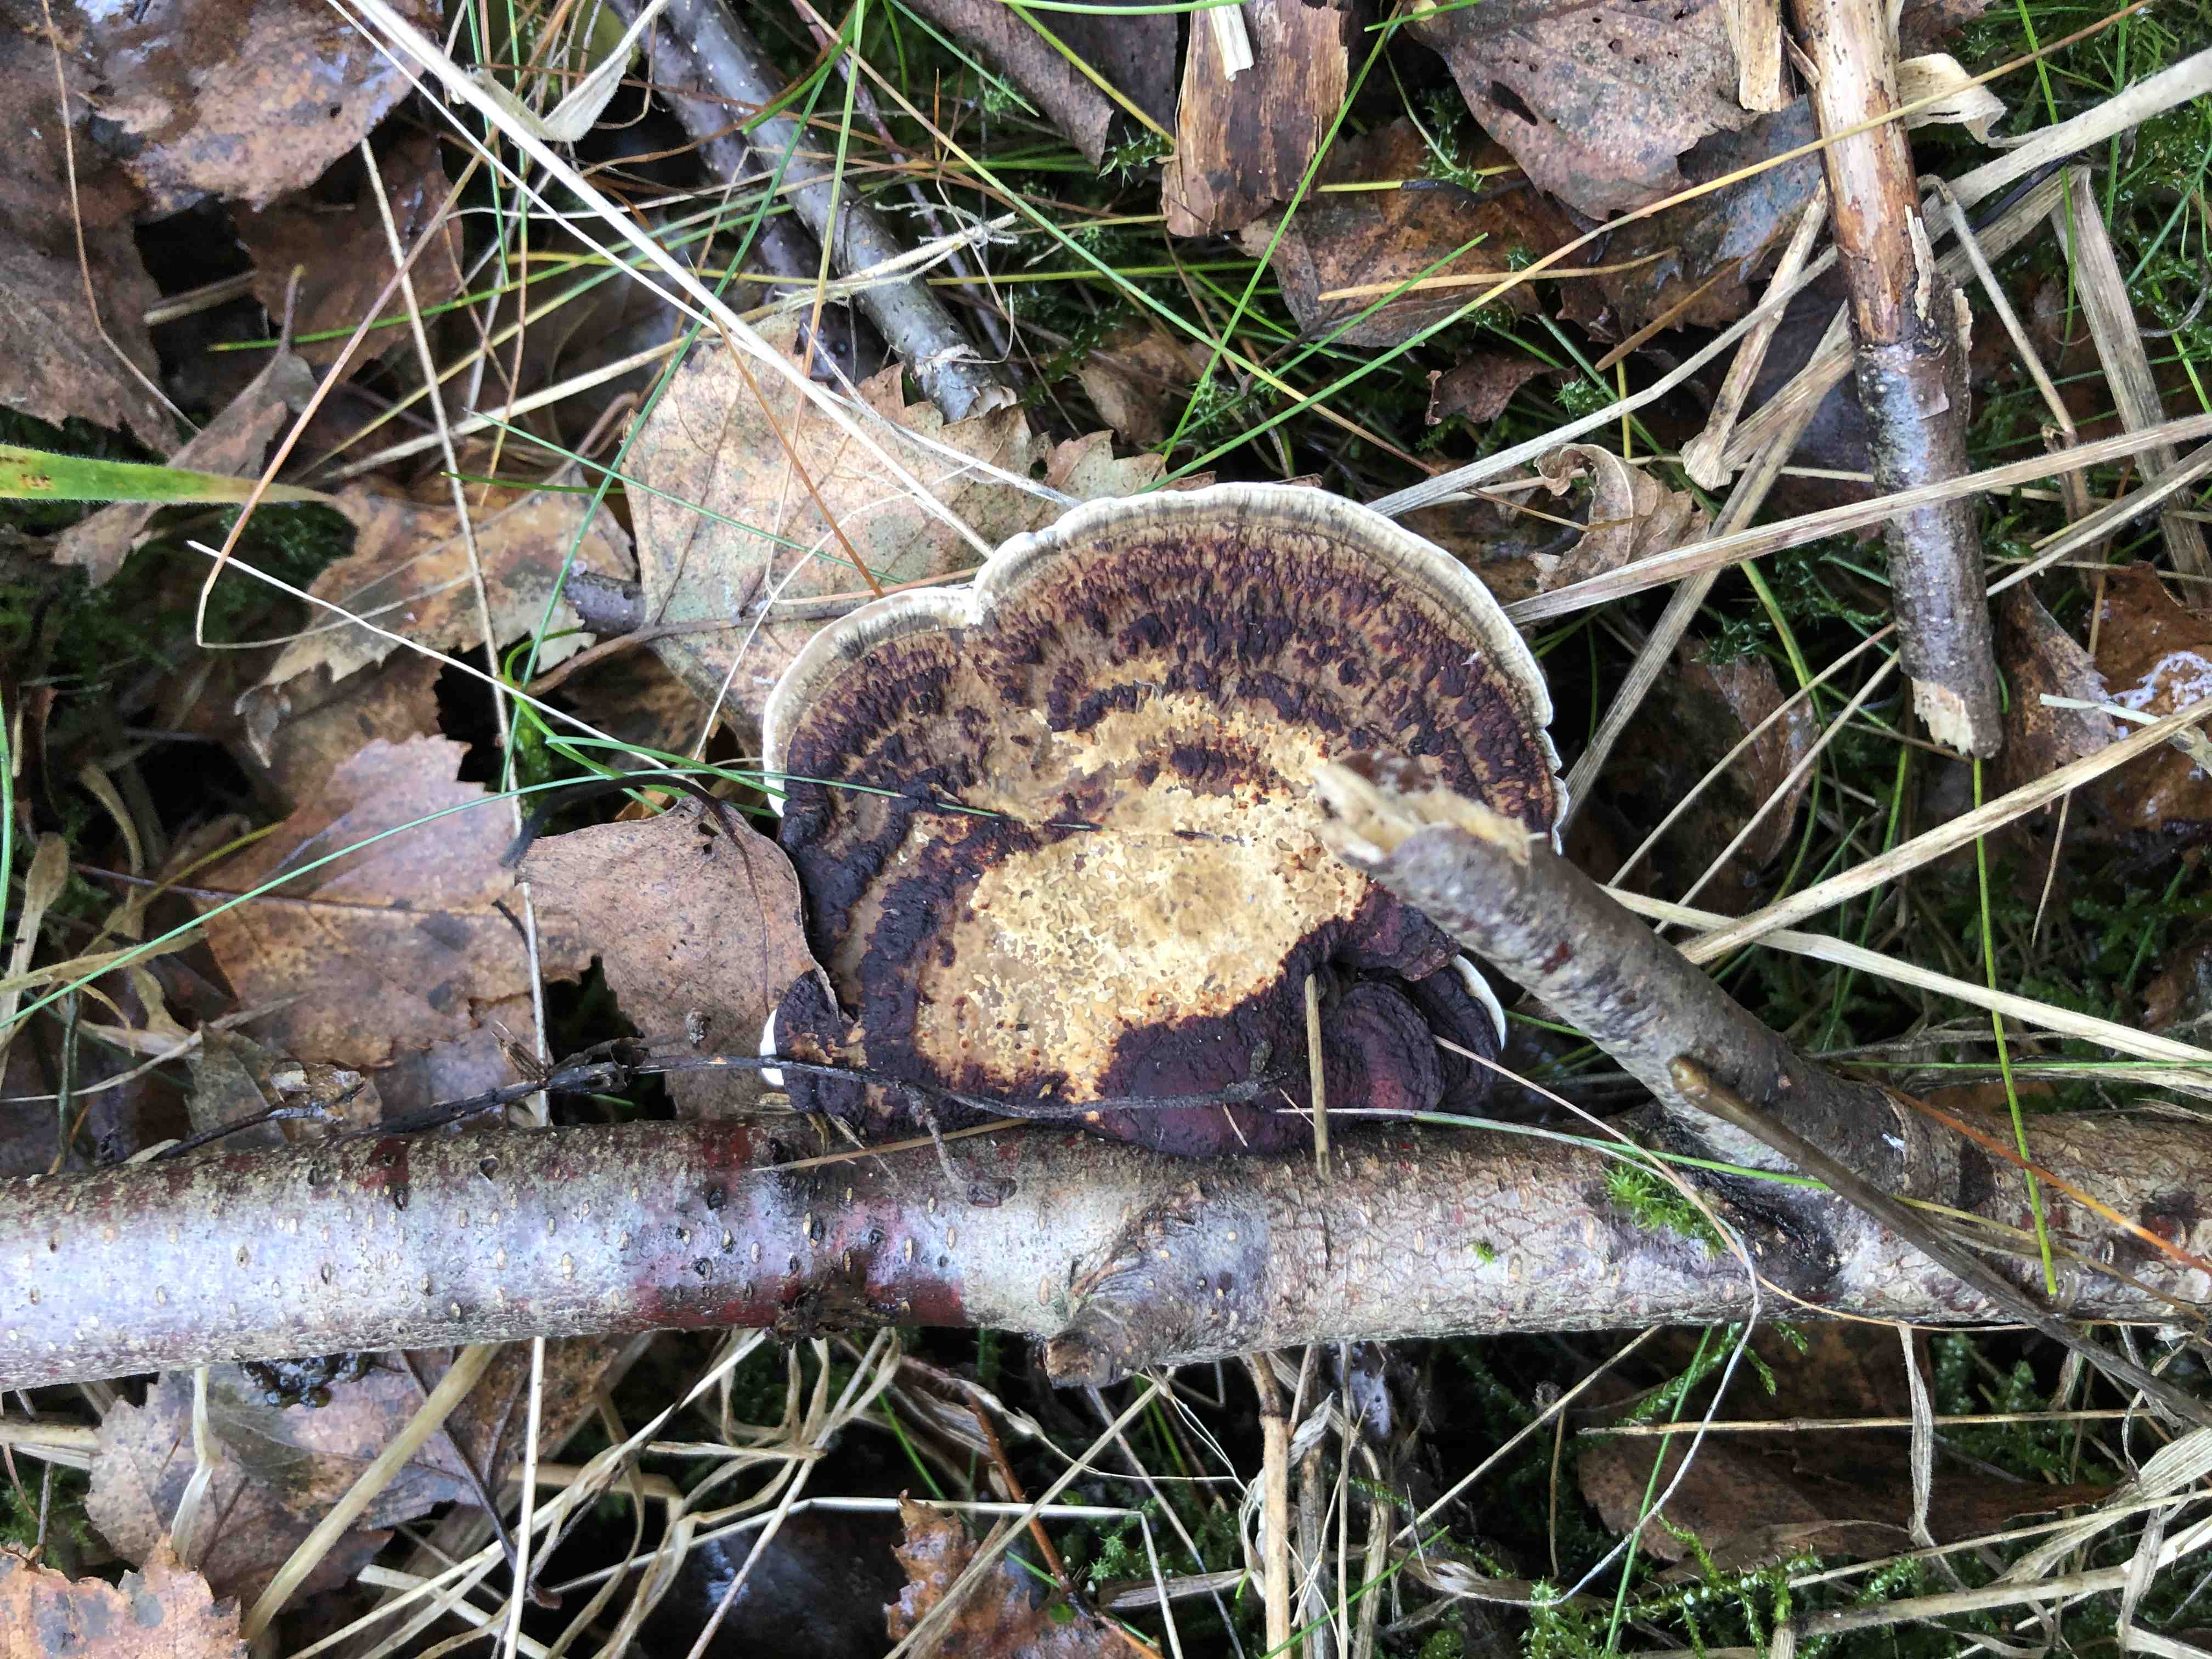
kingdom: Fungi
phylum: Basidiomycota
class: Agaricomycetes
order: Polyporales
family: Polyporaceae
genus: Daedaleopsis
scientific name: Daedaleopsis confragosa
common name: rødmende læderporesvamp
